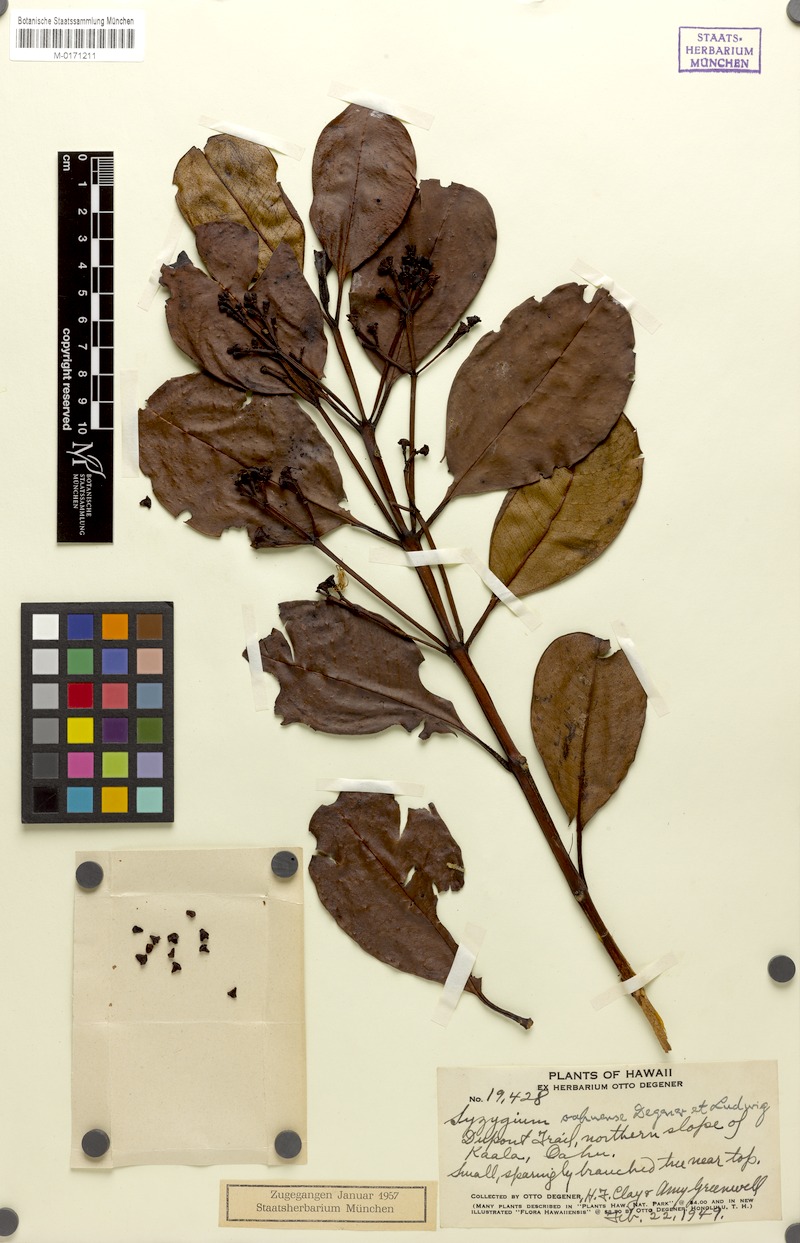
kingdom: Plantae
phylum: Tracheophyta
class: Magnoliopsida
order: Myrtales
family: Myrtaceae
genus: Syzygium
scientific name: Syzygium sandwicense
